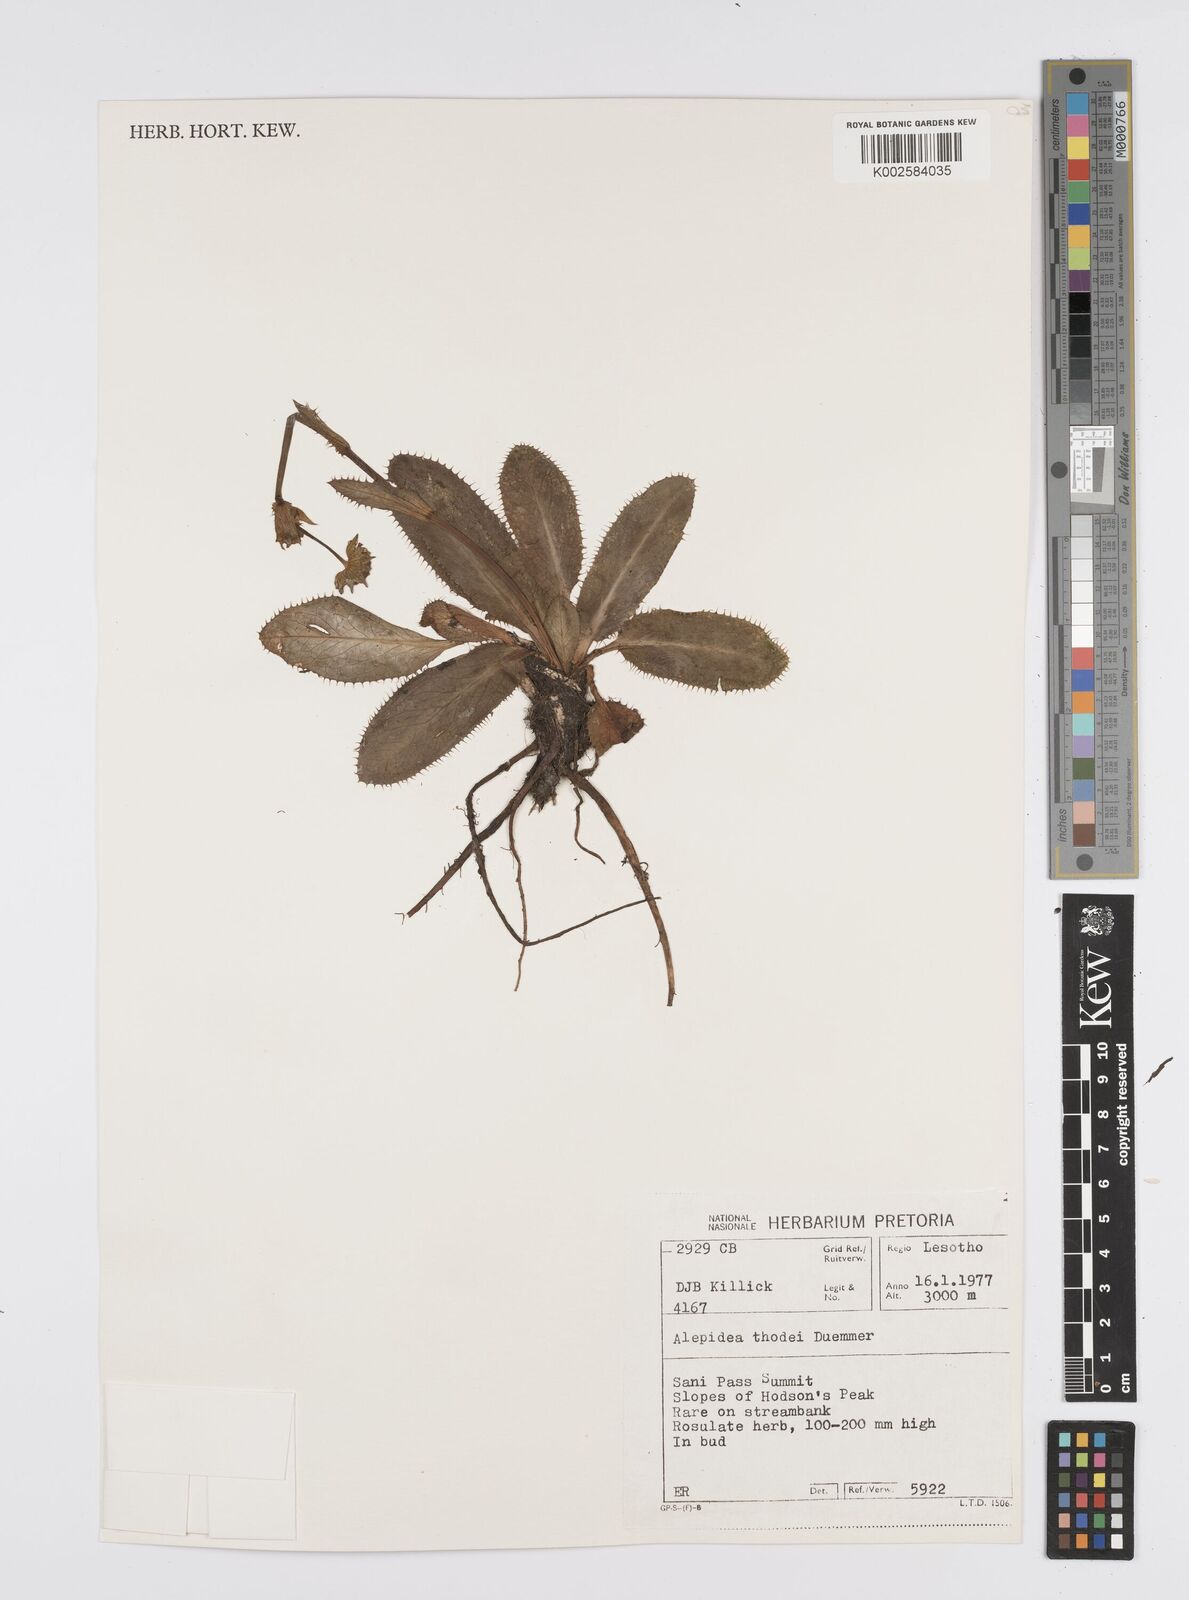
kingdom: Plantae
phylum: Tracheophyta
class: Magnoliopsida
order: Apiales
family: Apiaceae
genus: Alepidea
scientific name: Alepidea thodei
